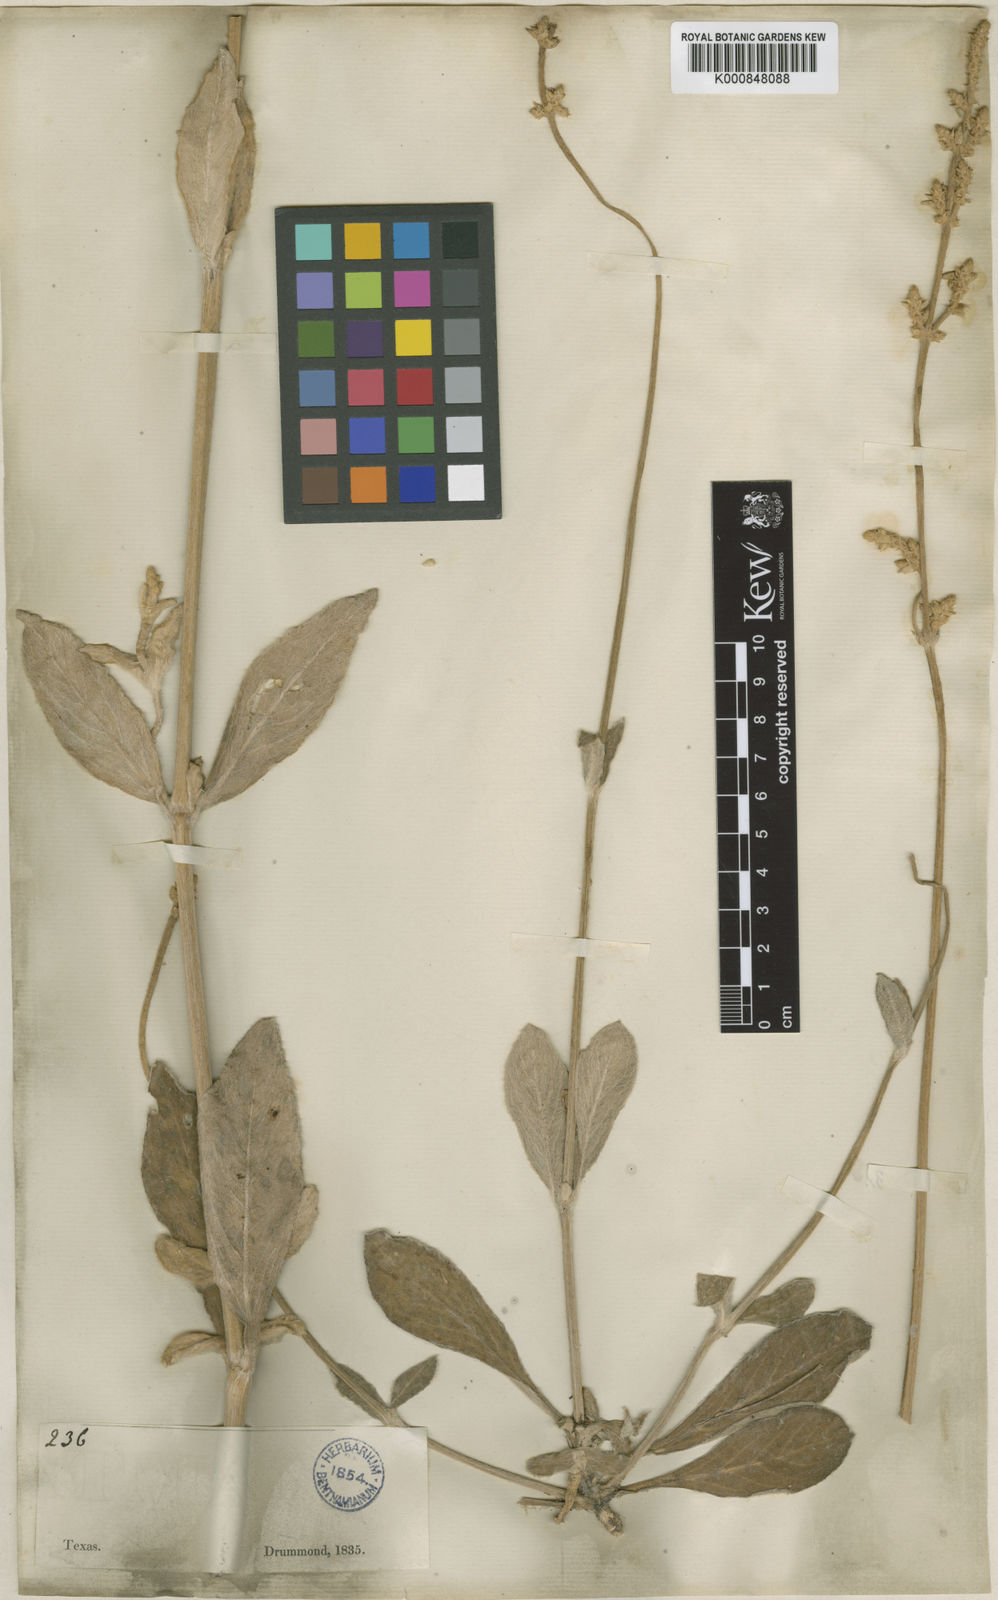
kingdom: Plantae
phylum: Tracheophyta
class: Magnoliopsida
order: Caryophyllales
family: Amaranthaceae
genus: Froelichia
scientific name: Froelichia floridana
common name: Florida snake-cotton
